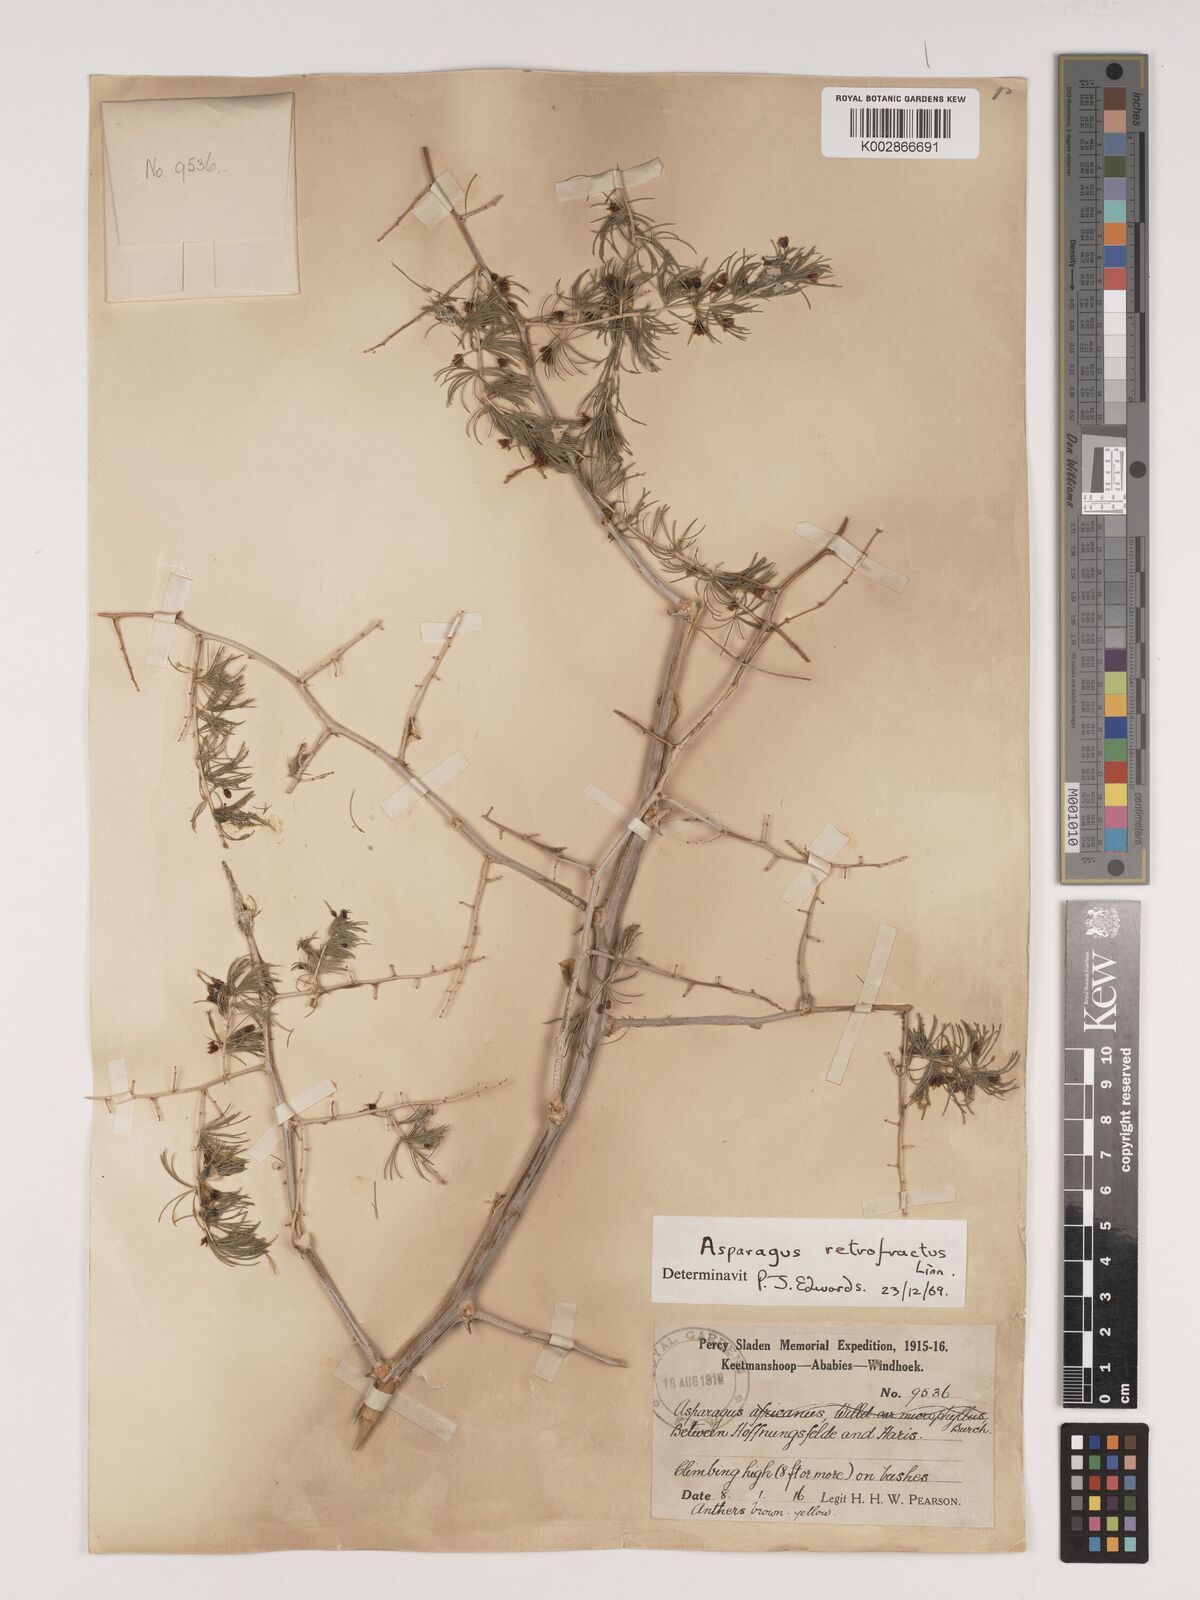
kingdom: Plantae
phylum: Tracheophyta
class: Liliopsida
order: Asparagales
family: Asparagaceae
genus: Asparagus
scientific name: Asparagus retrofractus
